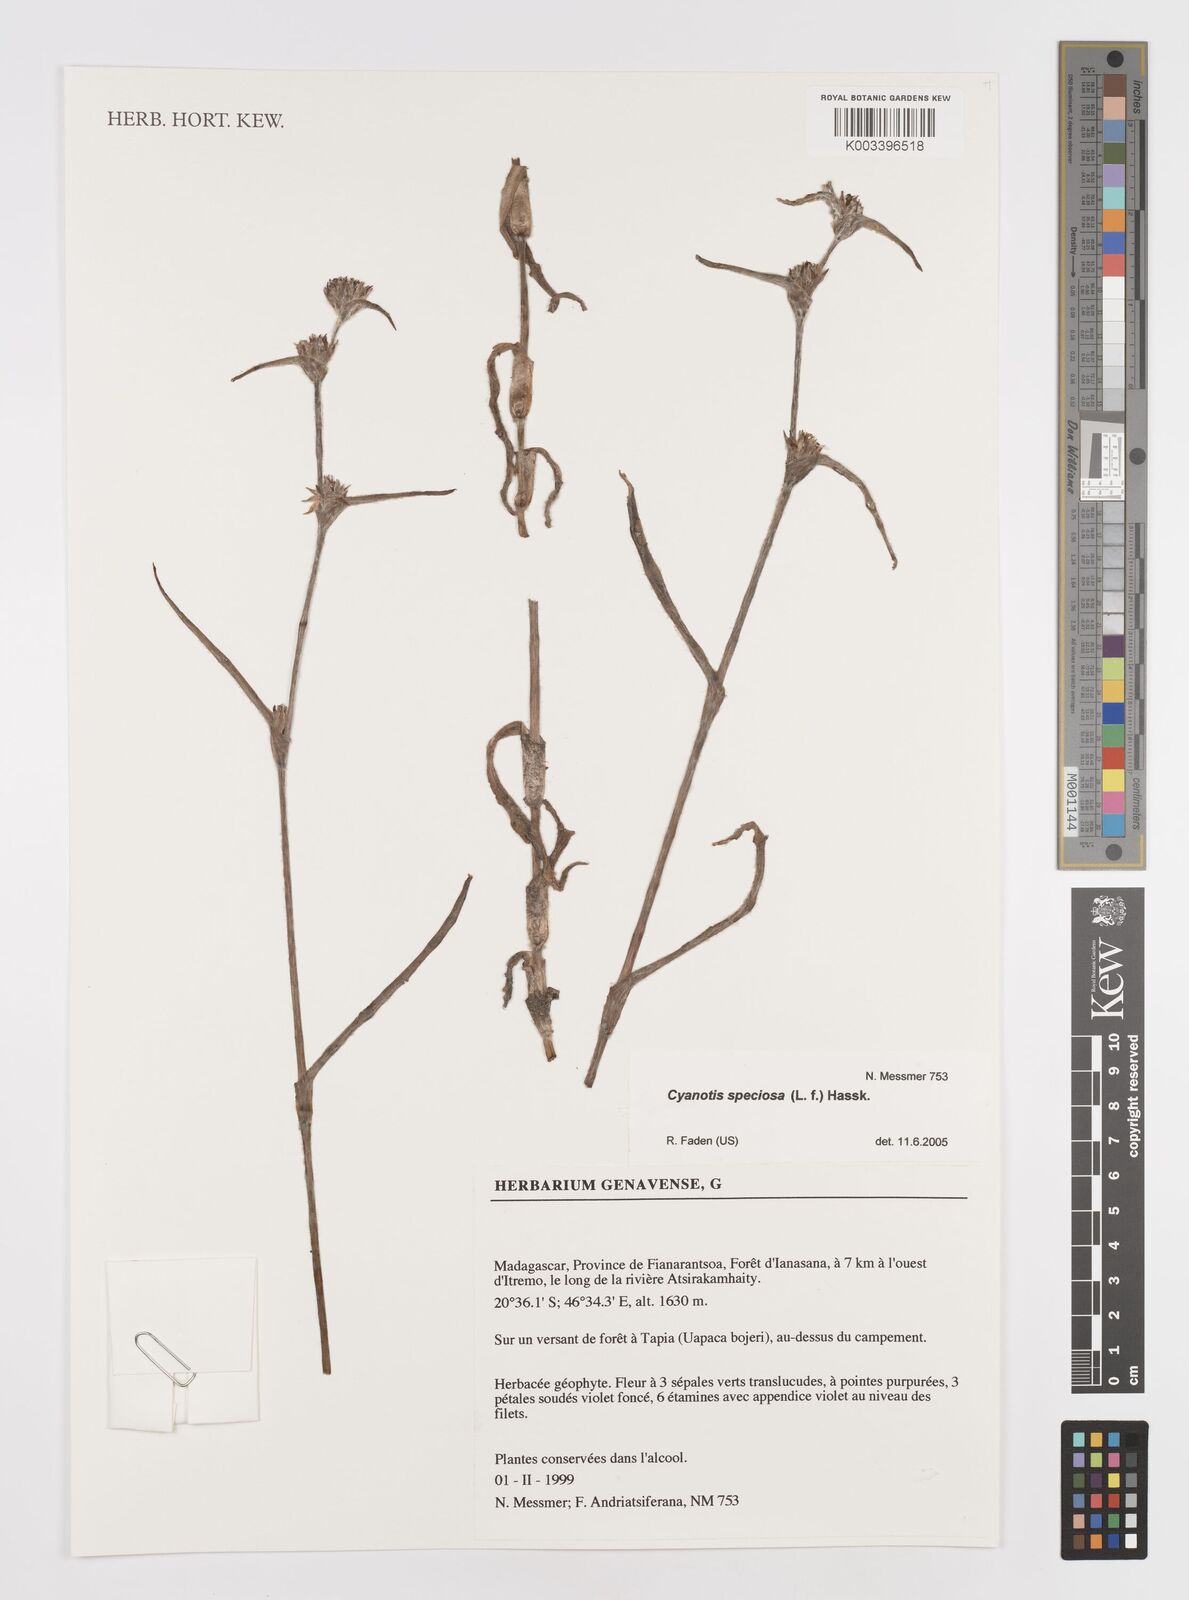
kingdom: Plantae
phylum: Tracheophyta
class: Liliopsida
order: Commelinales
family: Commelinaceae
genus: Cyanotis
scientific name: Cyanotis speciosa
